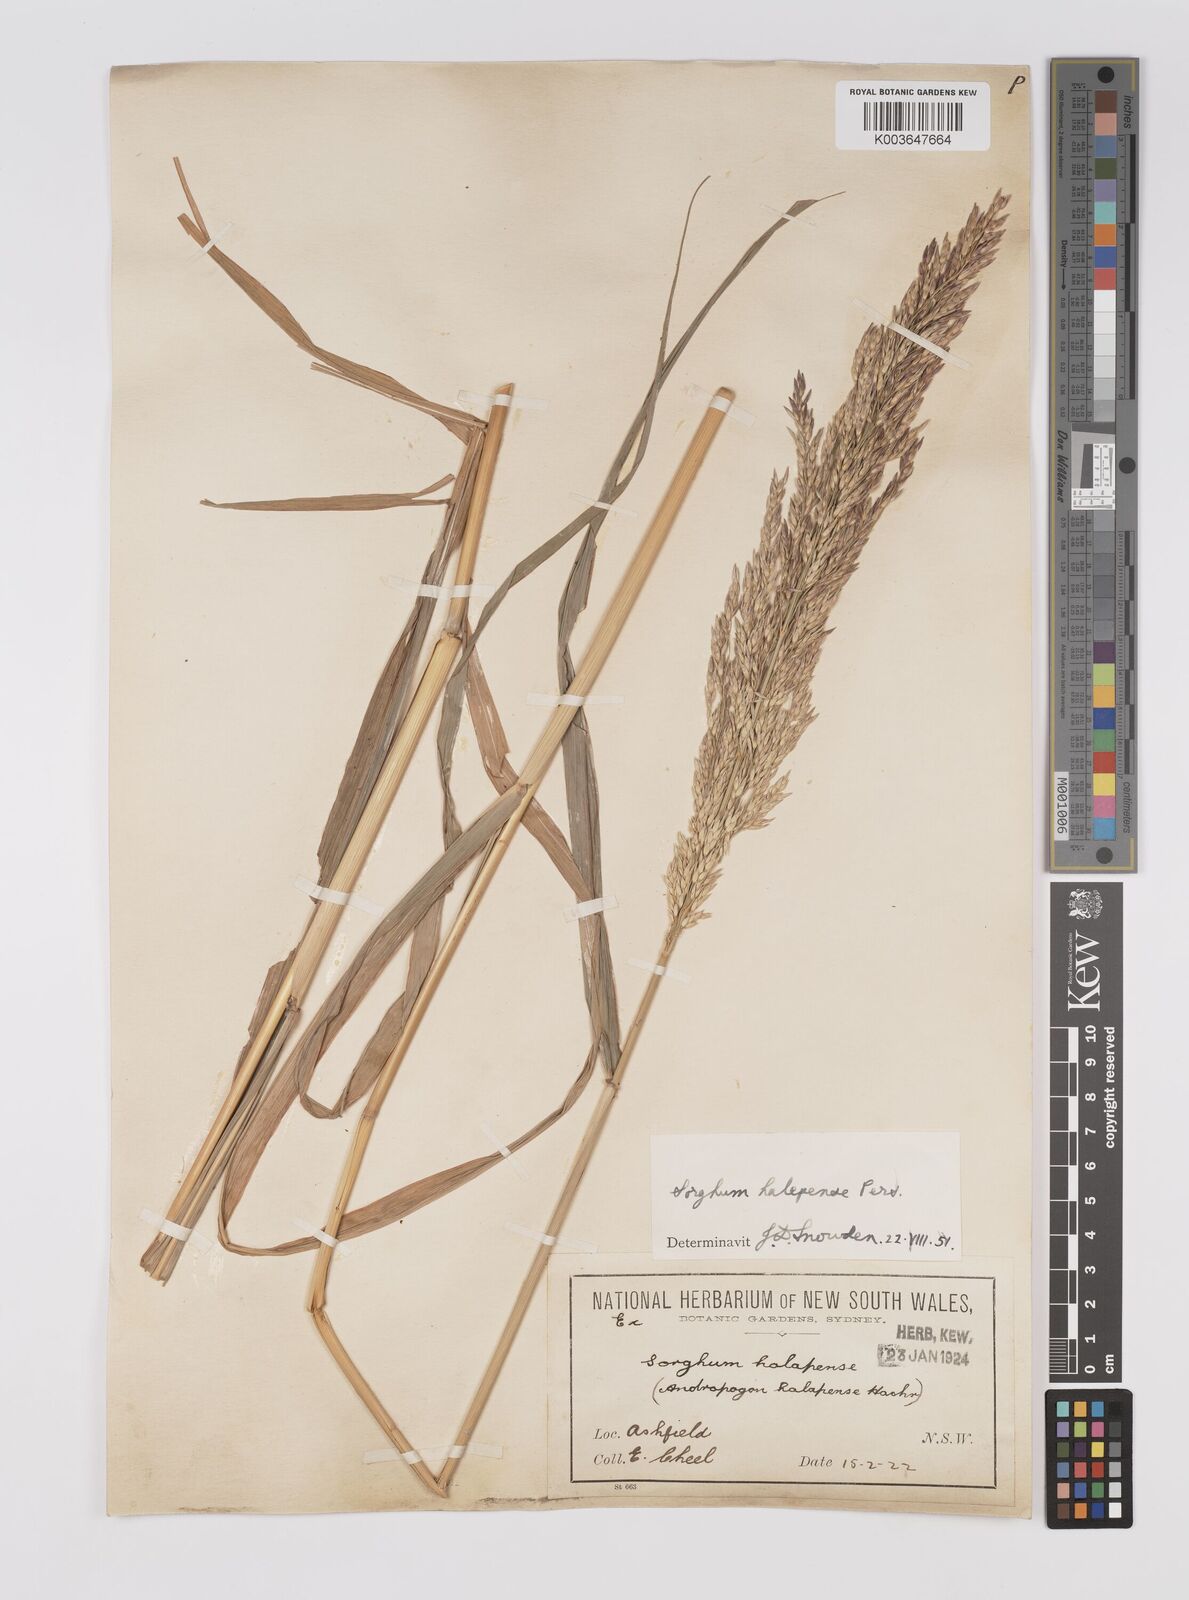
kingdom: Plantae
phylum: Tracheophyta
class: Liliopsida
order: Poales
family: Poaceae
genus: Sorghum
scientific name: Sorghum halepense
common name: Johnson-grass
